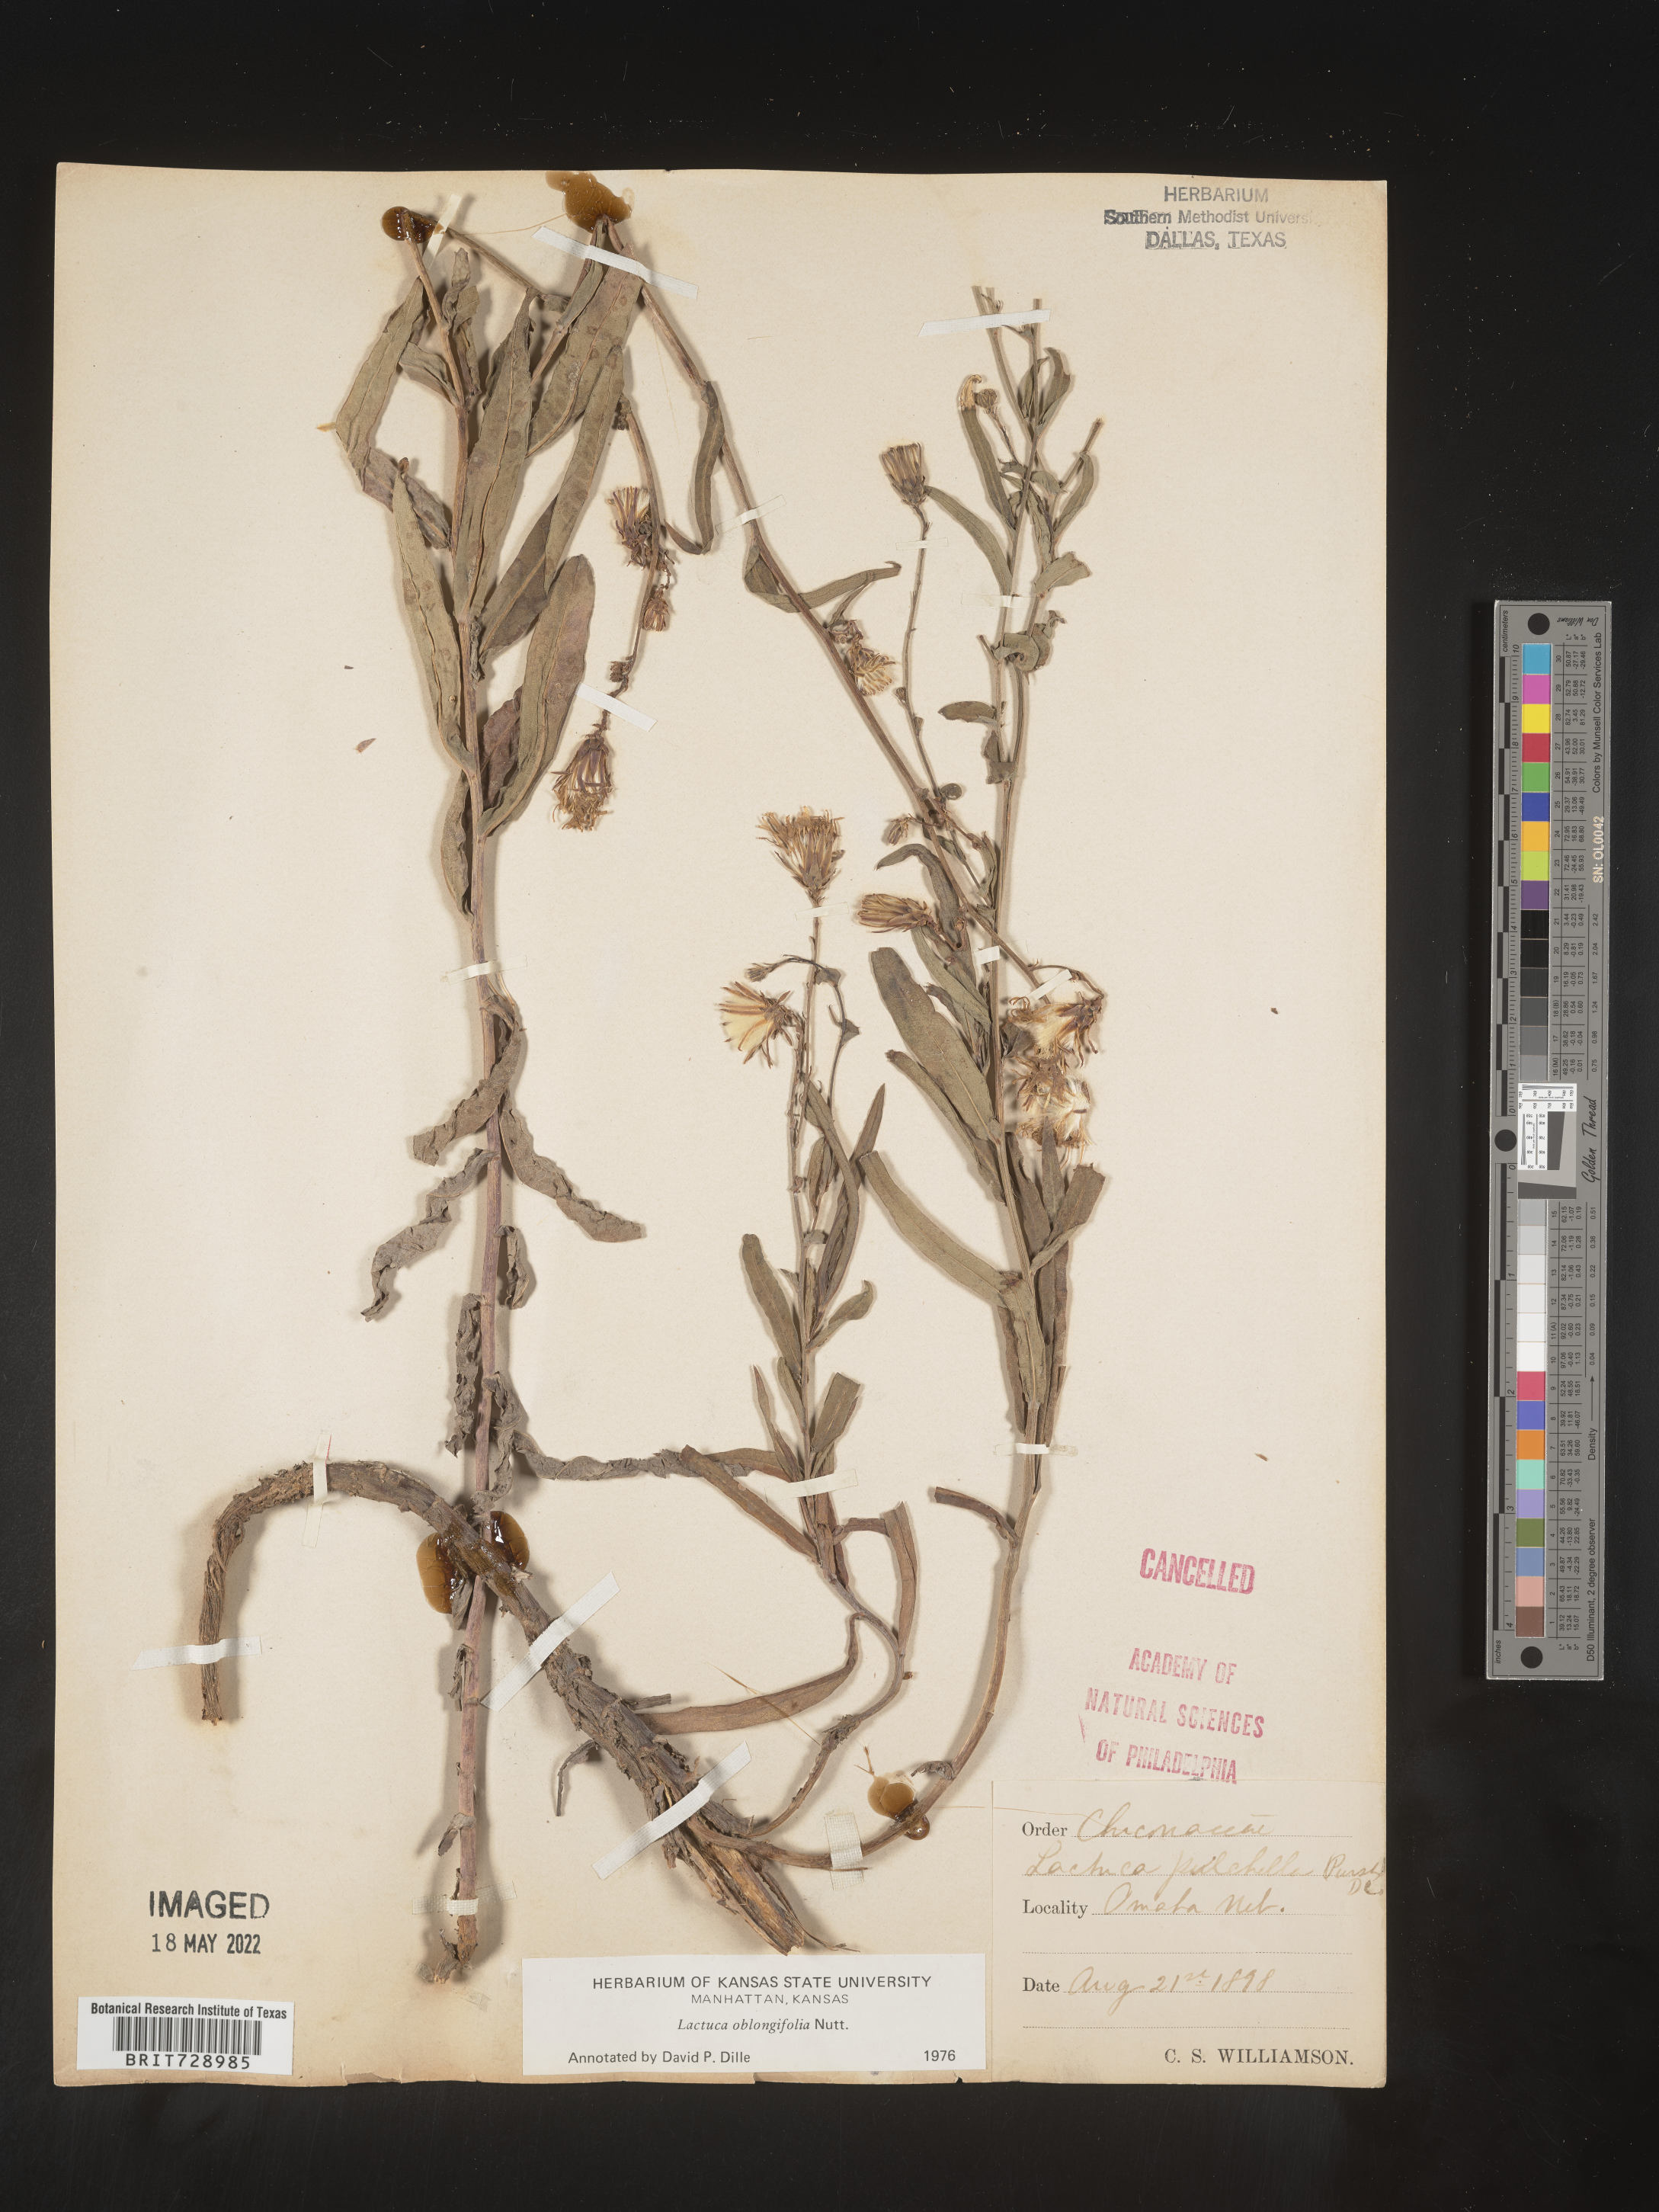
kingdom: Plantae
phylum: Tracheophyta
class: Magnoliopsida
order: Asterales
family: Asteraceae
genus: Lactuca
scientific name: Lactuca pulchella
